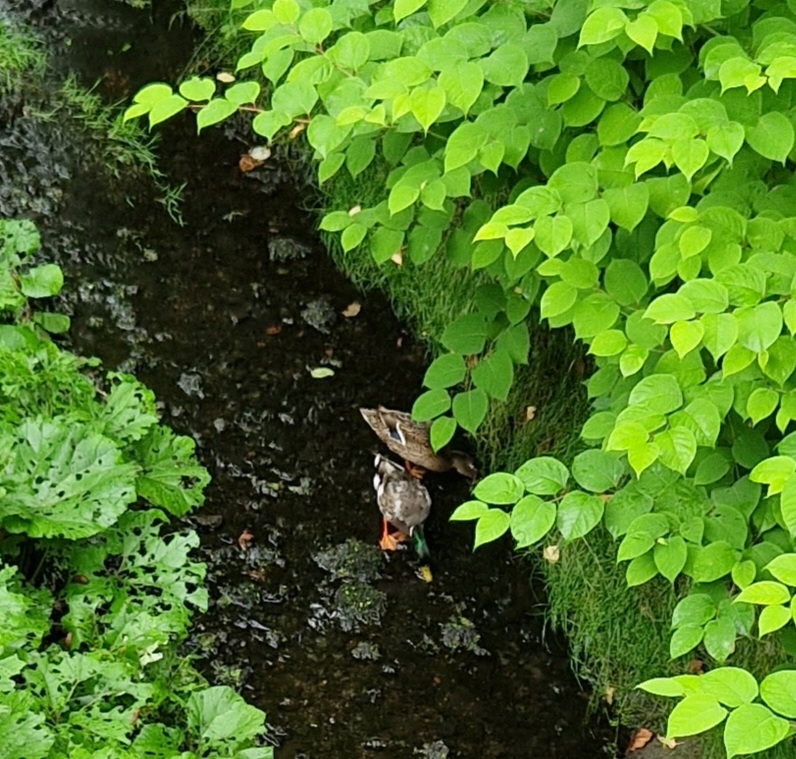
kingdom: Animalia
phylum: Chordata
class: Aves
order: Anseriformes
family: Anatidae
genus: Anas
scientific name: Anas platyrhynchos
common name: Gråand
